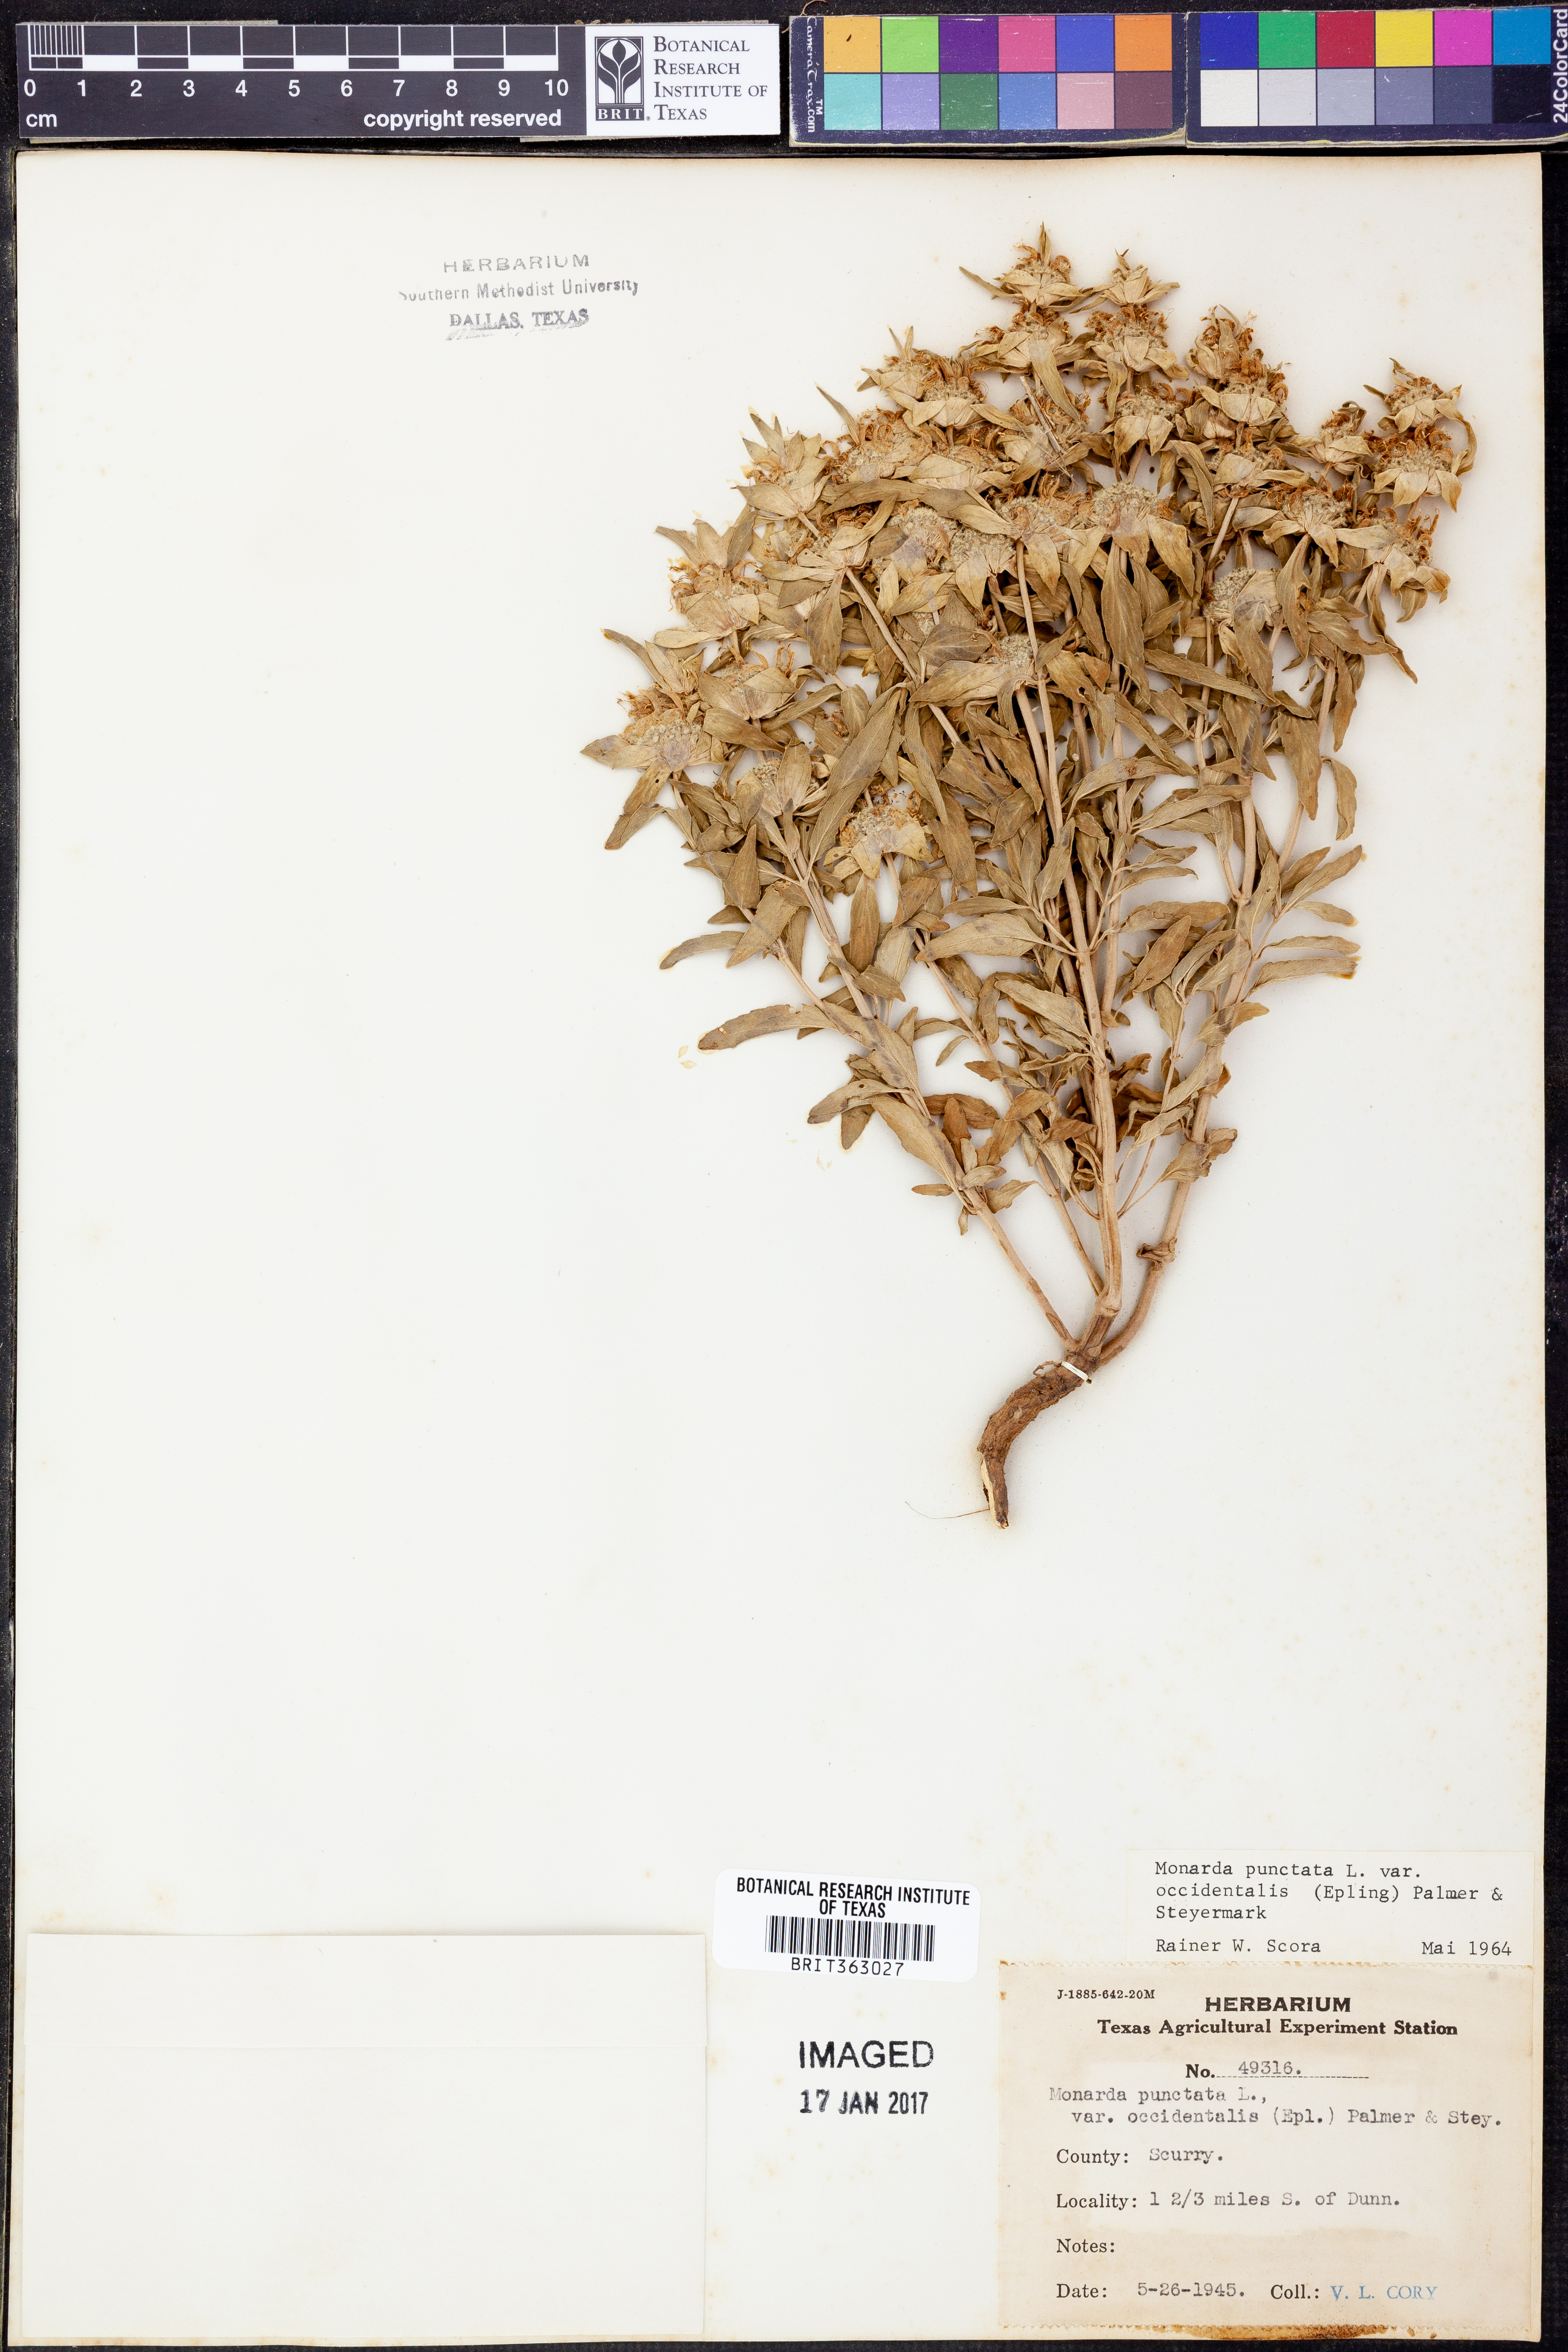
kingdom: Plantae
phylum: Tracheophyta
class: Magnoliopsida
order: Lamiales
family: Lamiaceae
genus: Monarda
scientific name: Monarda punctata
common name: Dotted monarda
